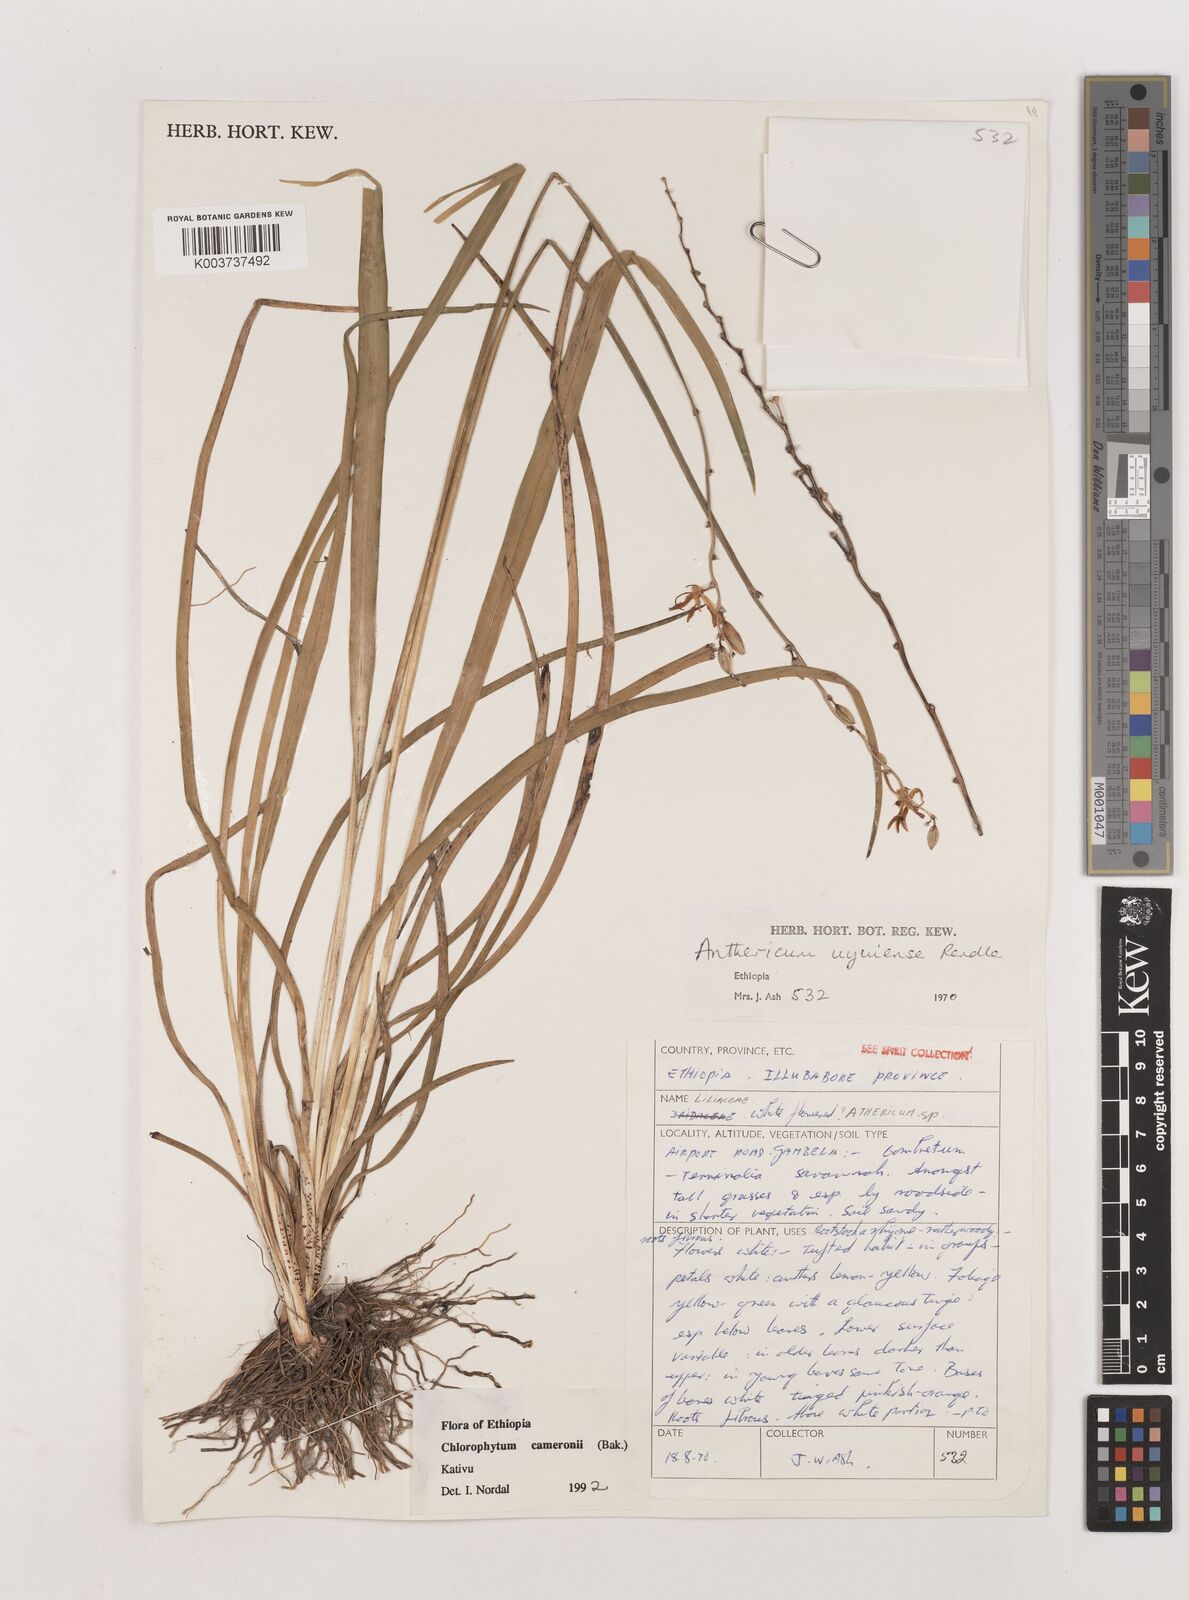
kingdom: Plantae
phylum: Tracheophyta
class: Liliopsida
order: Asparagales
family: Asparagaceae
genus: Chlorophytum
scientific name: Chlorophytum cameronii
